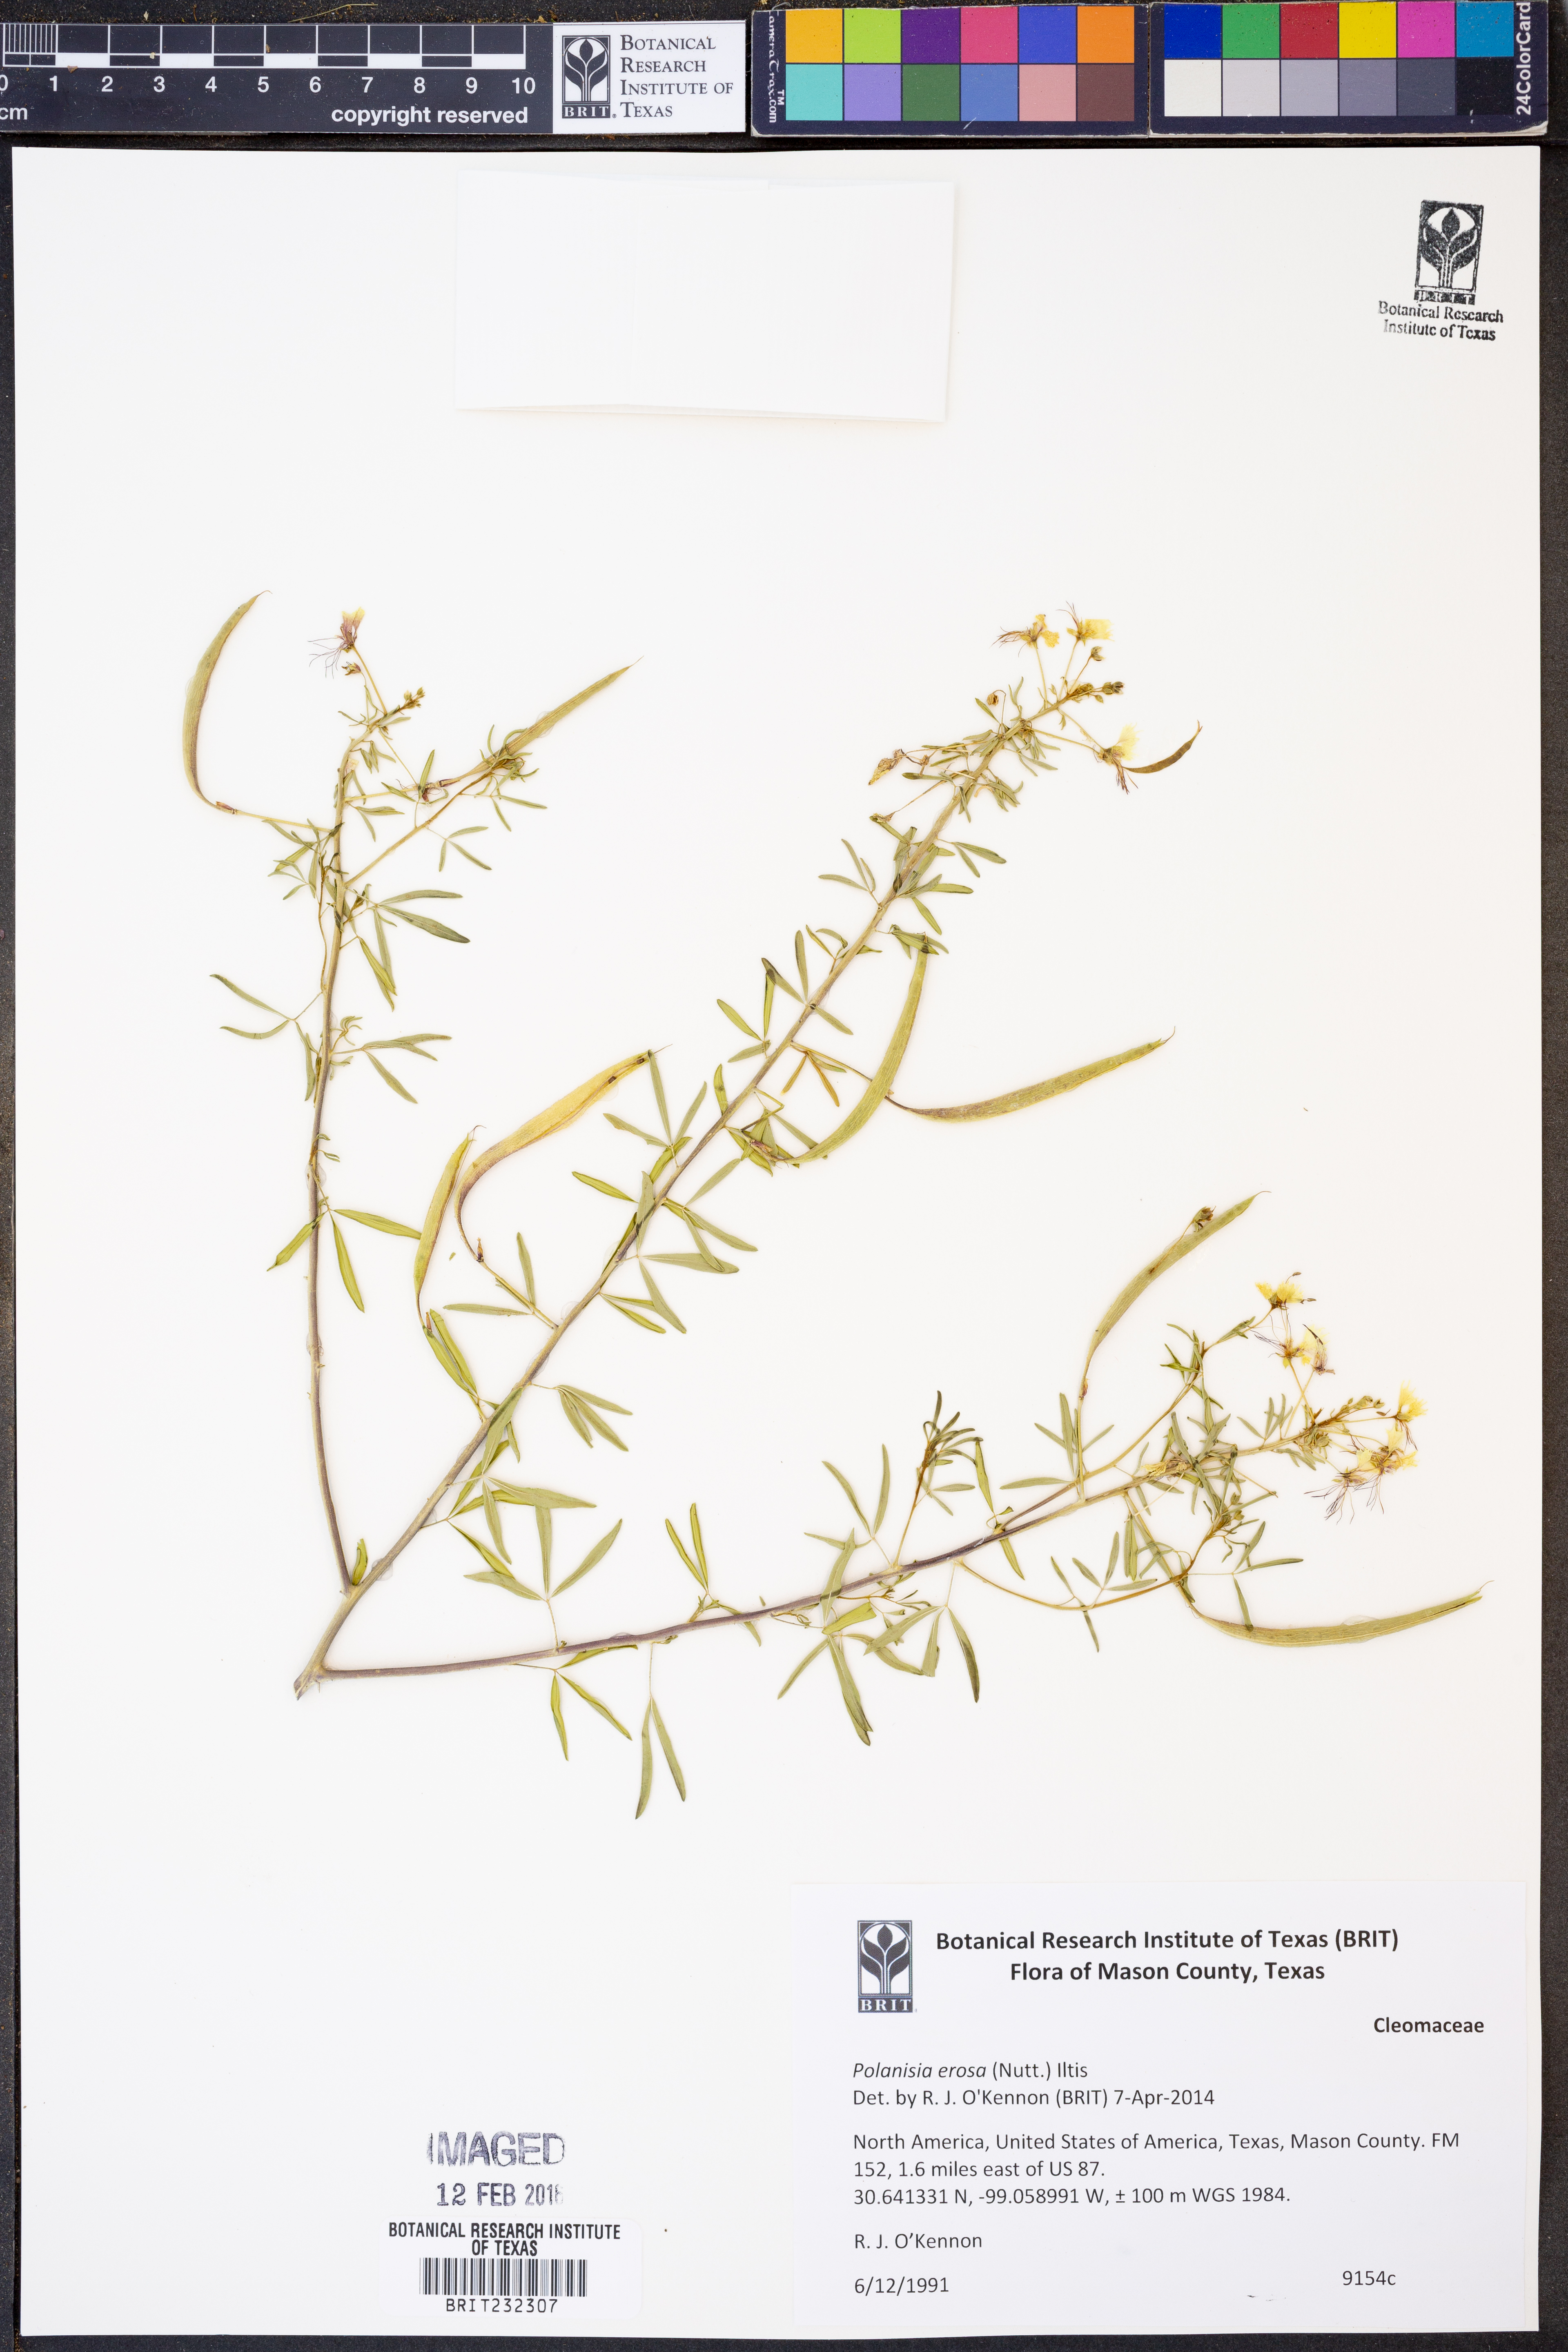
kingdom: Plantae
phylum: Tracheophyta
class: Magnoliopsida
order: Brassicales
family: Cleomaceae
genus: Polanisia
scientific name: Polanisia erosa
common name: Large clammyweed
